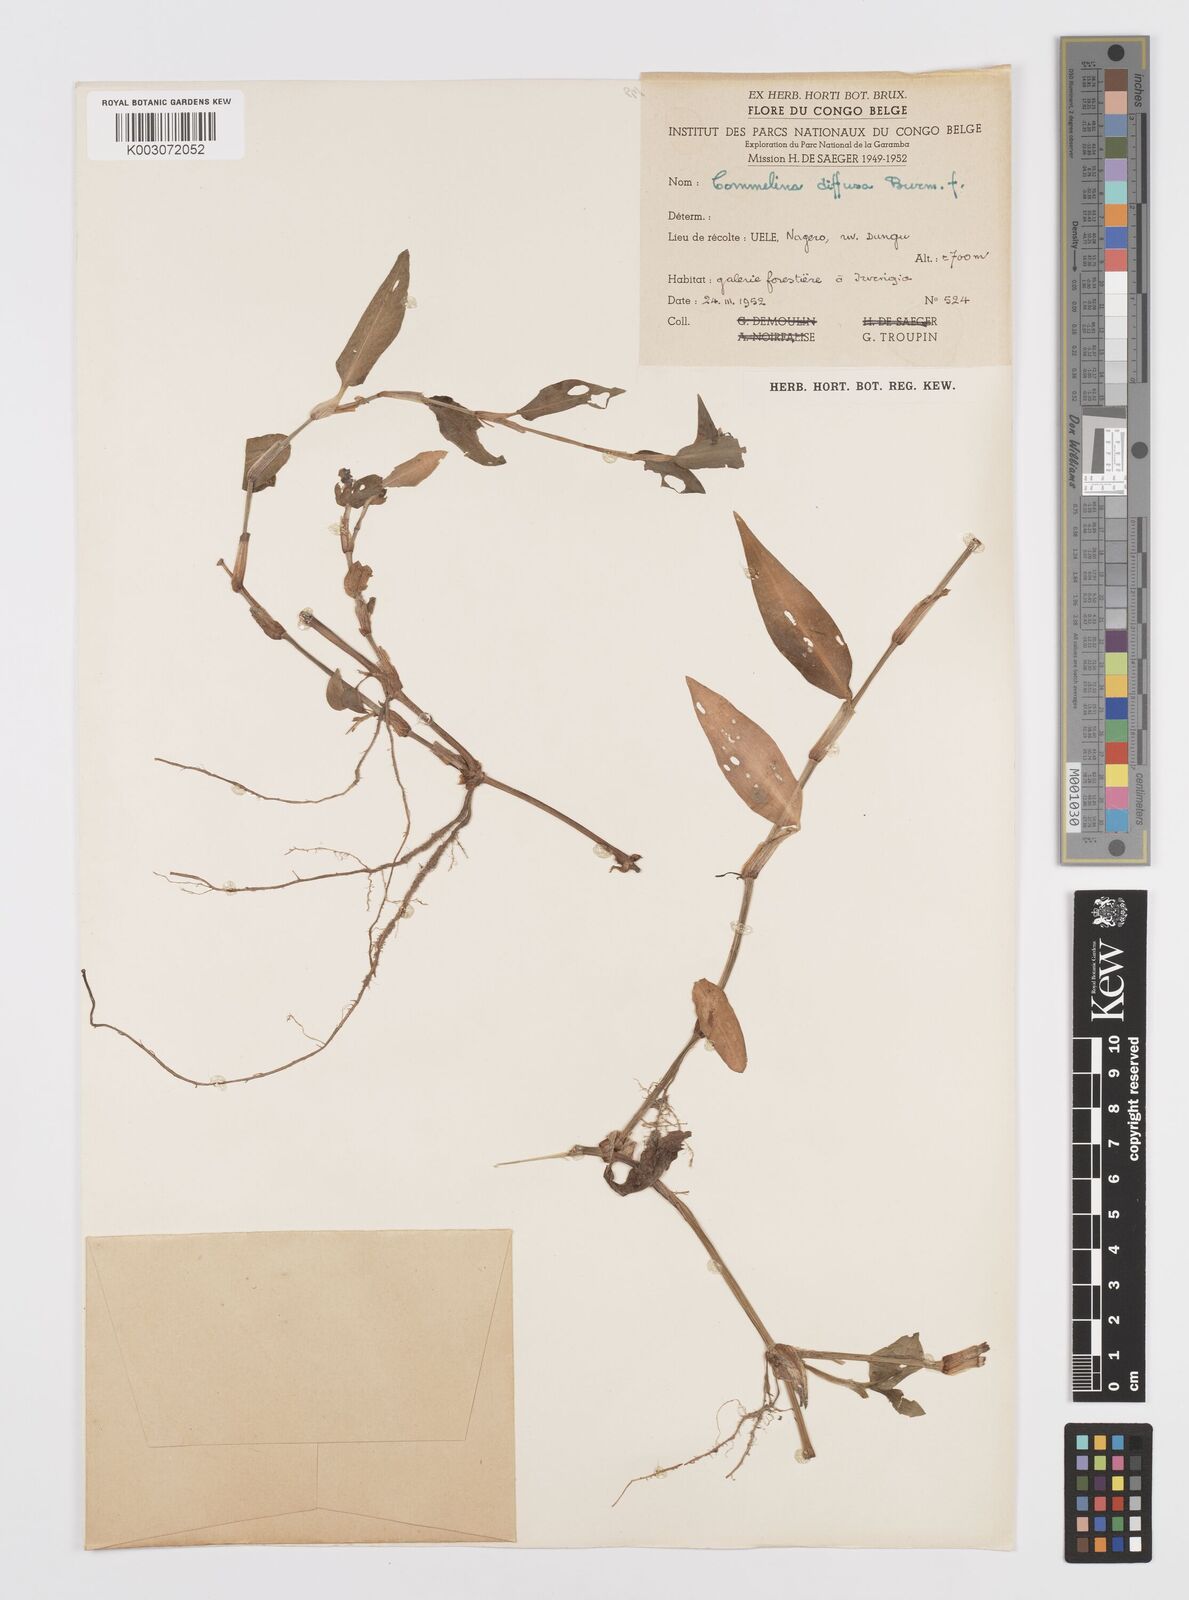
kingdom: Plantae
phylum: Tracheophyta
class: Liliopsida
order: Commelinales
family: Commelinaceae
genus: Commelina
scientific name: Commelina diffusa
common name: Climbing dayflower
